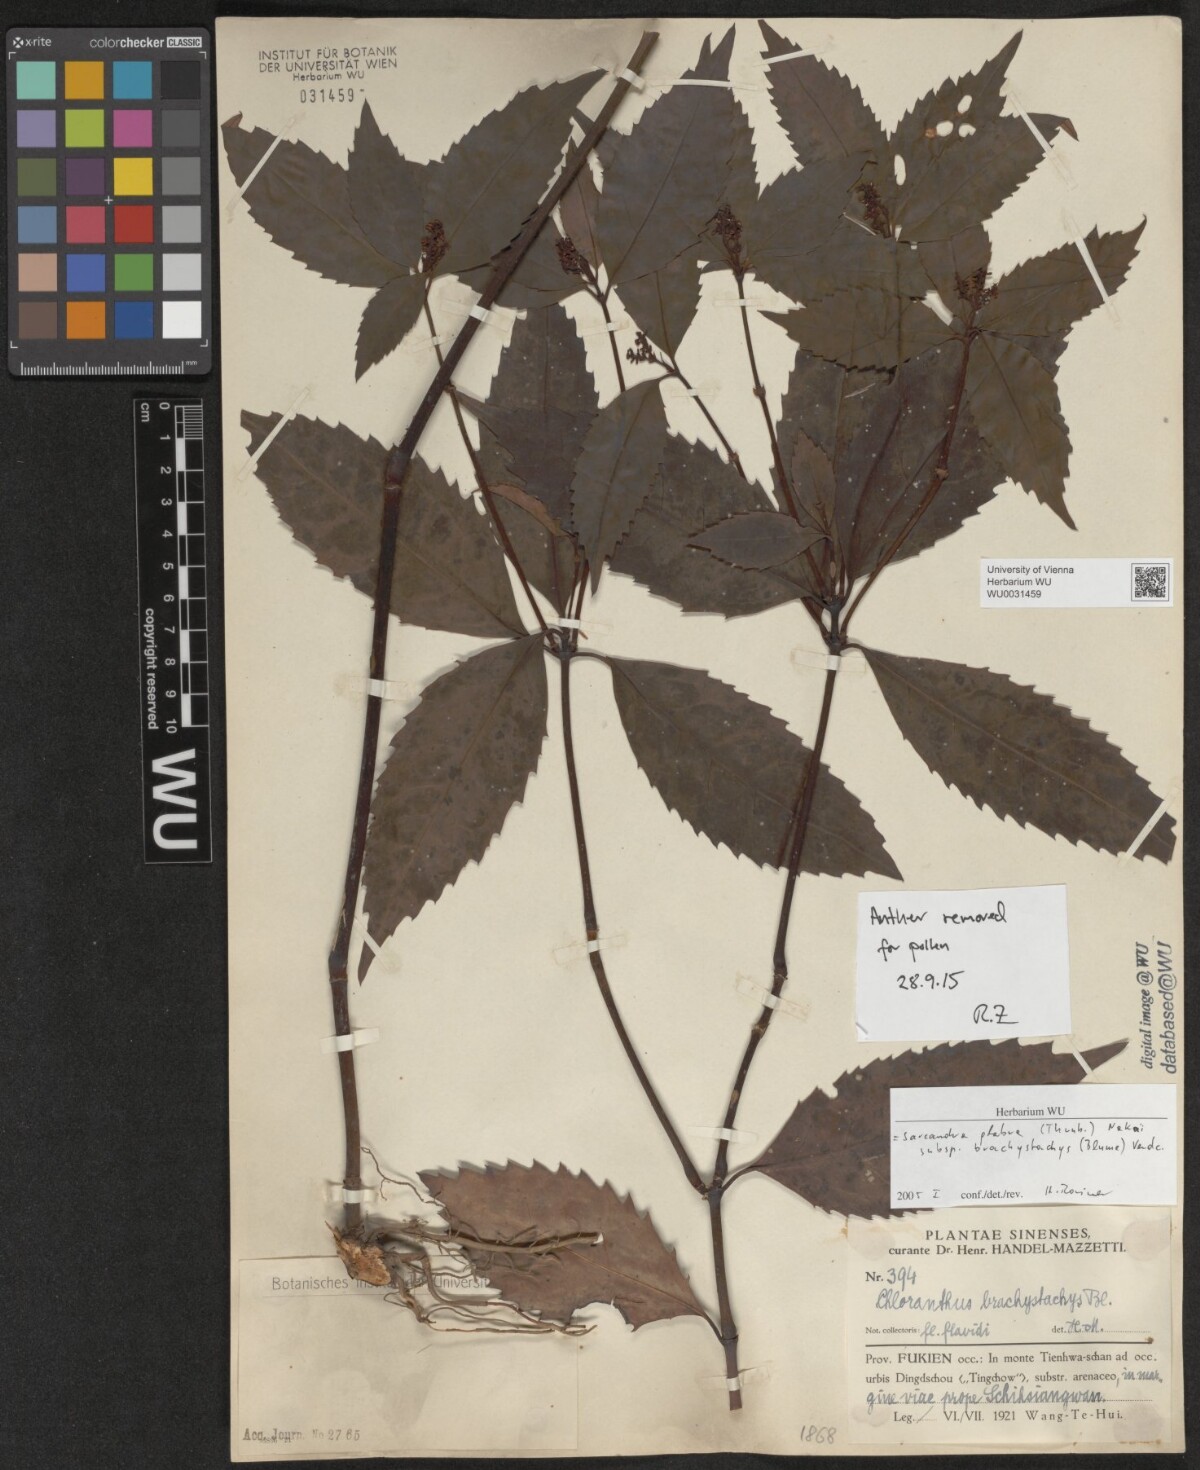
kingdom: Plantae
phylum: Tracheophyta
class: Magnoliopsida
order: Chloranthales
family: Chloranthaceae
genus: Sarcandra
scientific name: Sarcandra glabra
